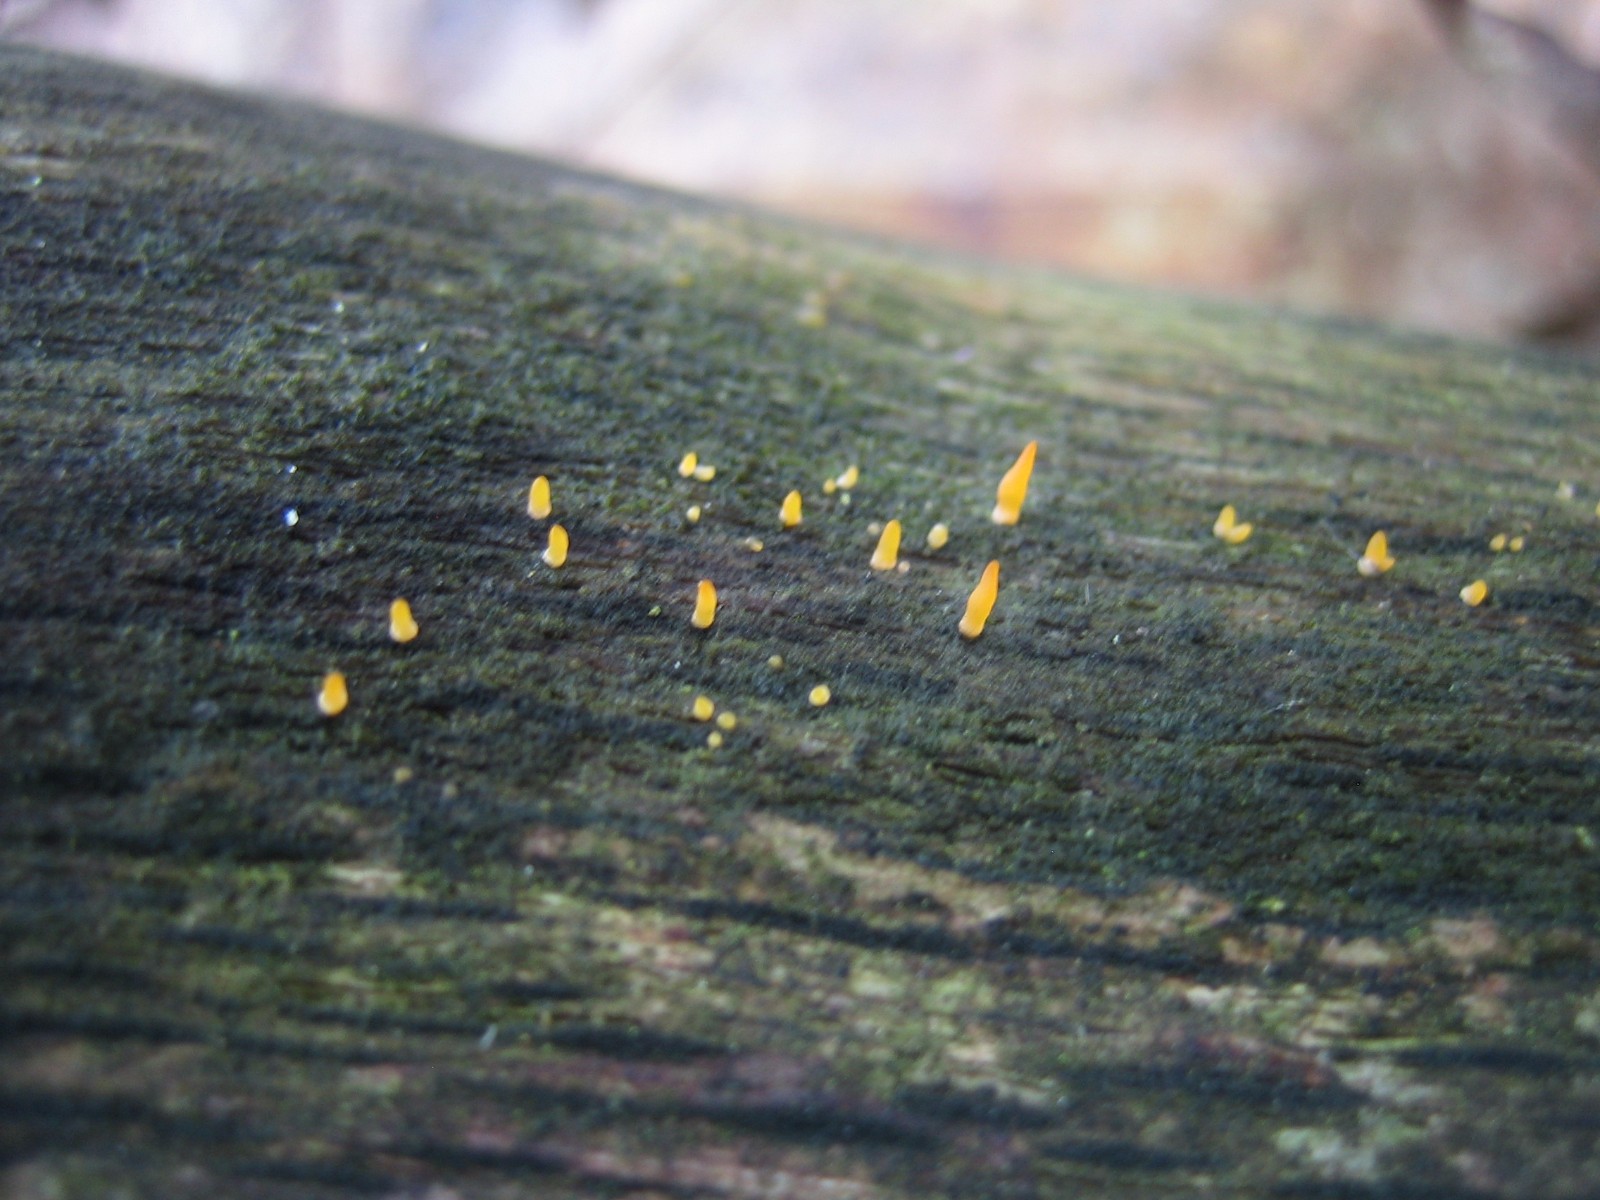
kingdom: Fungi
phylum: Basidiomycota
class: Dacrymycetes
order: Dacrymycetales
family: Dacrymycetaceae
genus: Calocera
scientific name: Calocera cornea
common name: liden guldgaffel
